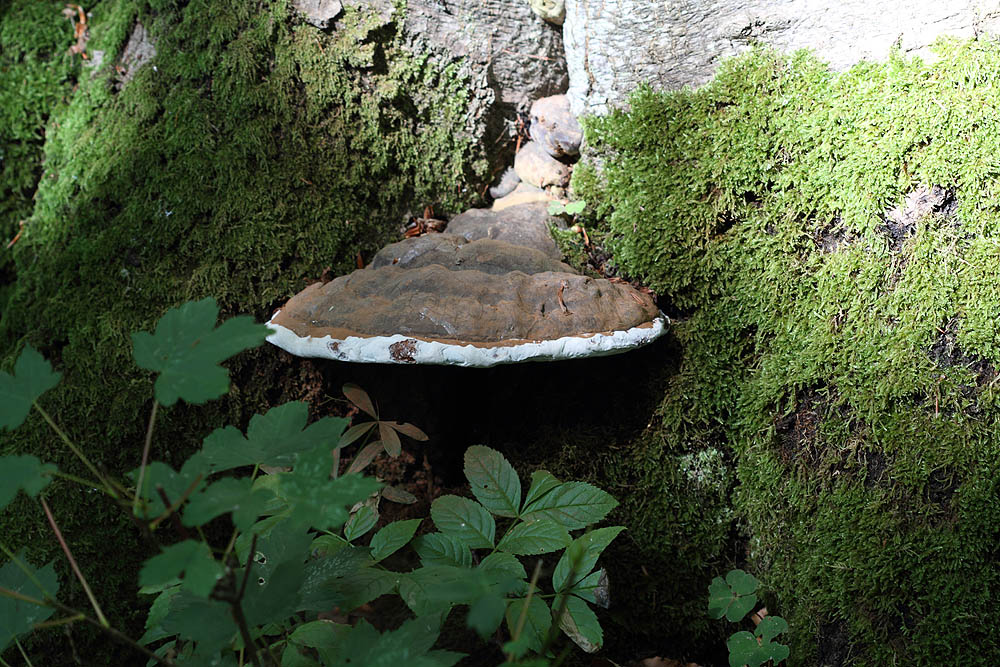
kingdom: Fungi
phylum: Basidiomycota
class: Agaricomycetes
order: Polyporales
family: Polyporaceae
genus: Ganoderma
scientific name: Ganoderma pfeifferi
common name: kobberrød lakporesvamp
